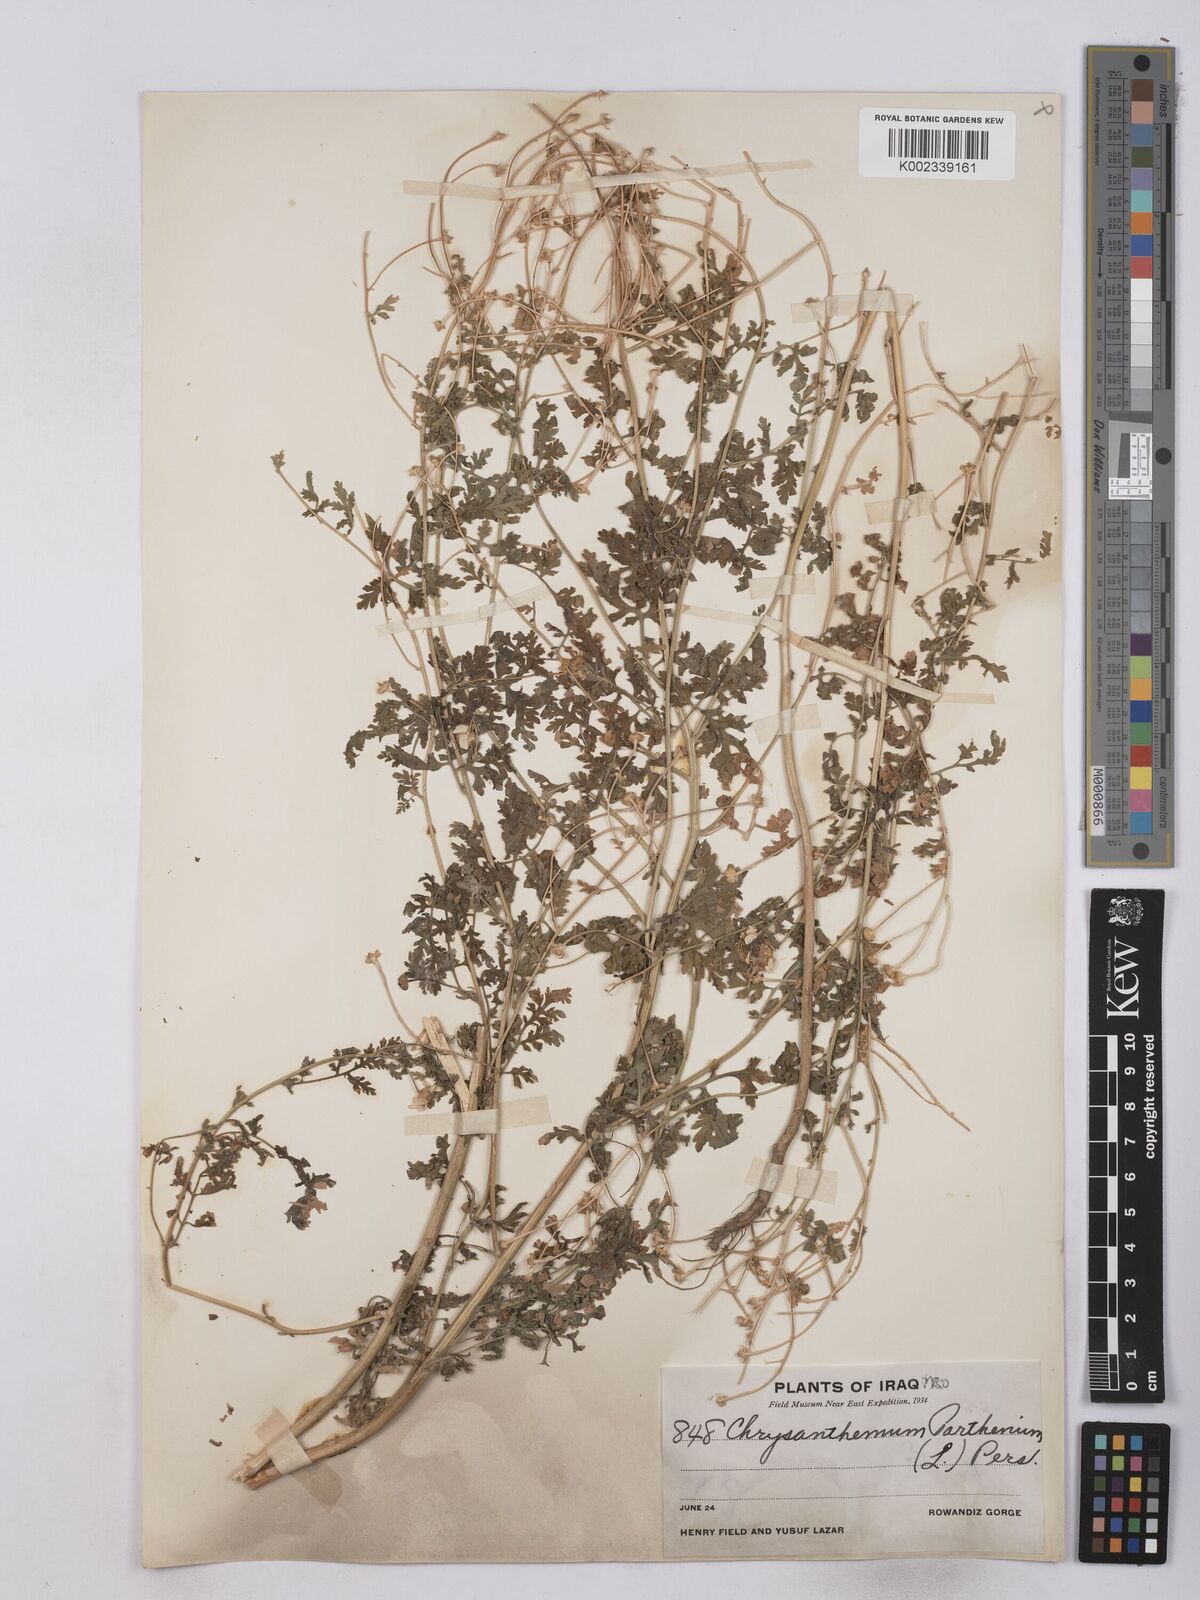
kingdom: Plantae
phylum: Tracheophyta
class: Magnoliopsida
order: Asterales
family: Asteraceae
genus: Tanacetum
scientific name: Tanacetum partheniifolium
